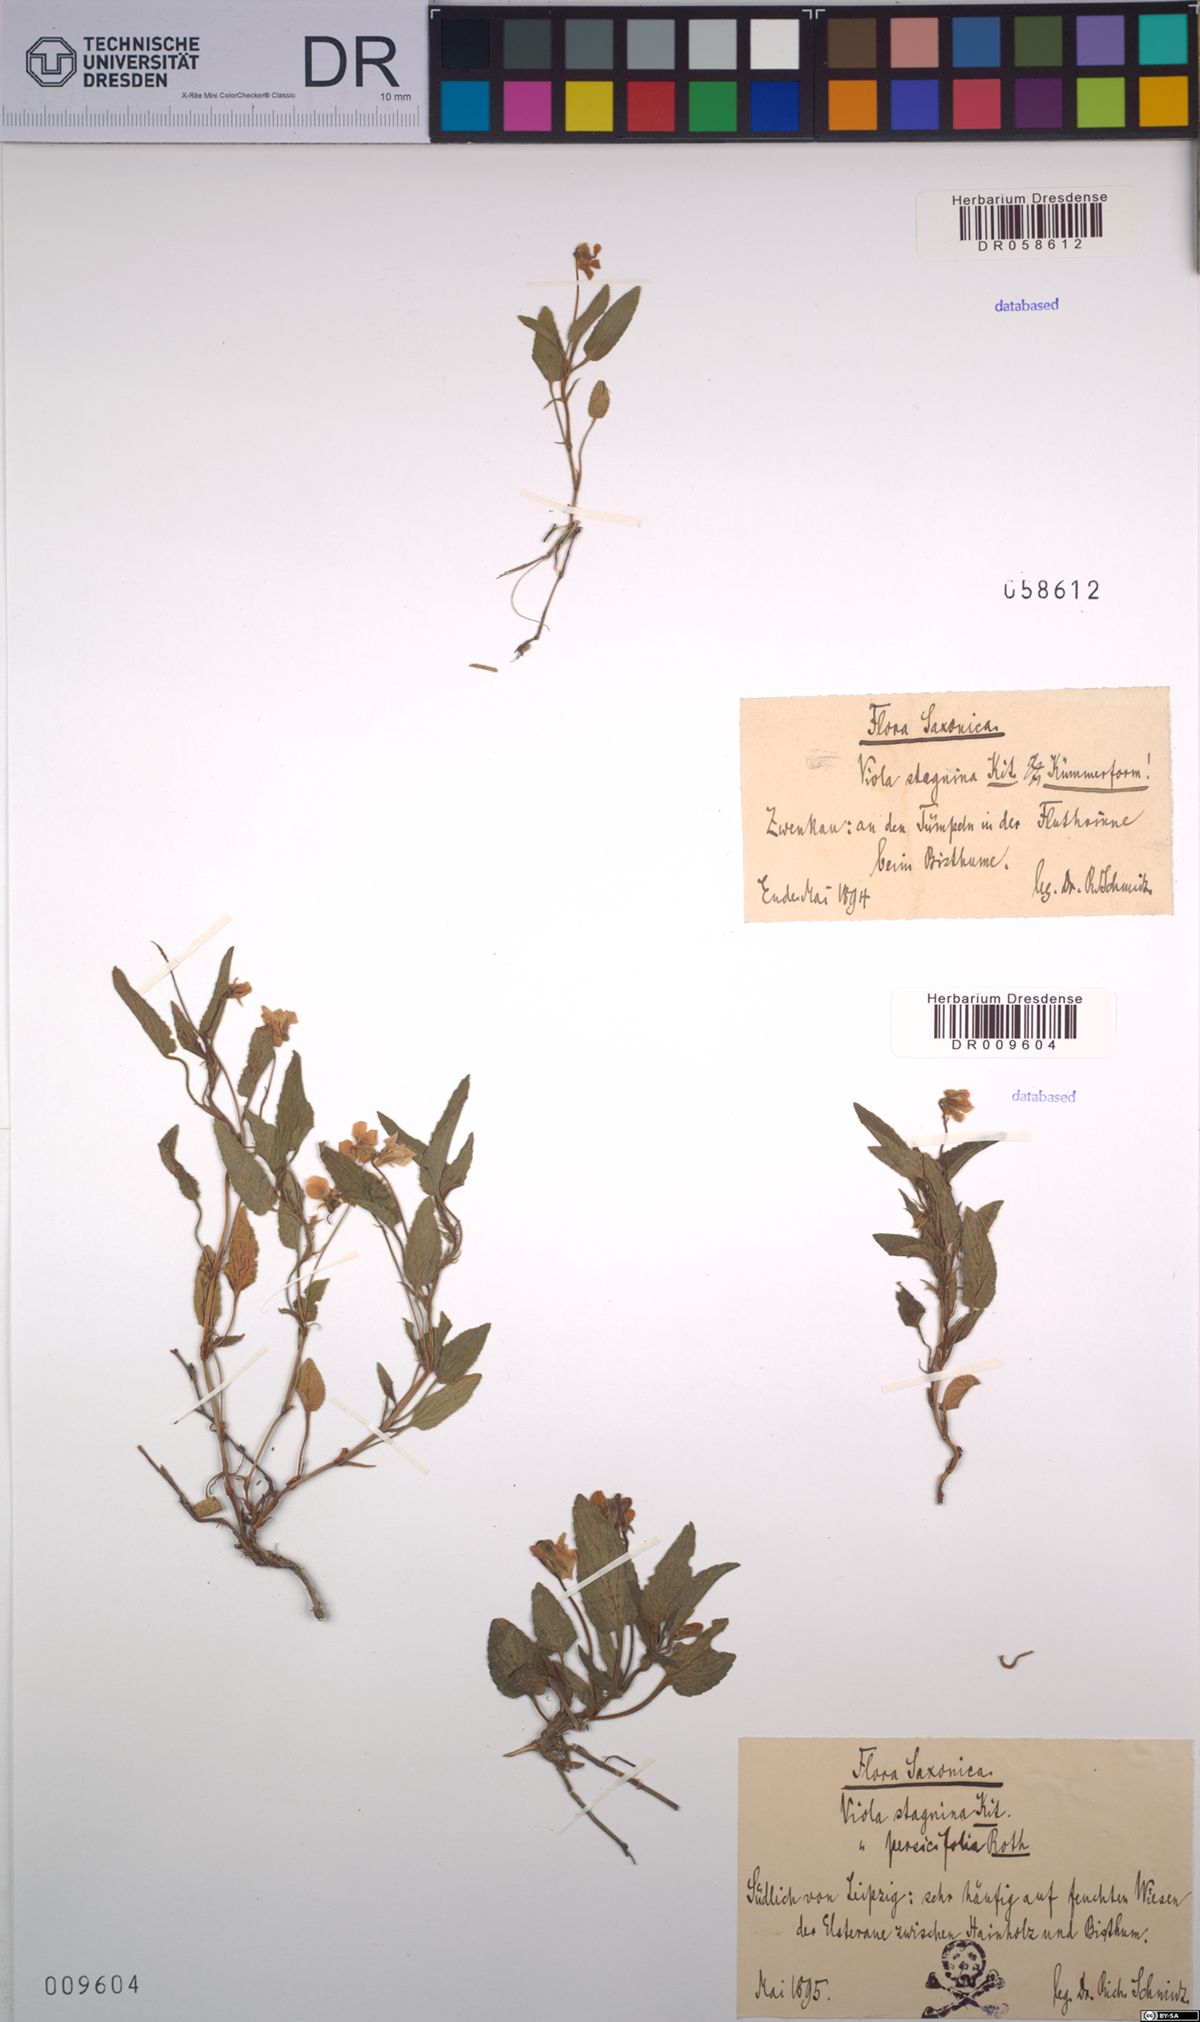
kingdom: Plantae
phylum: Tracheophyta
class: Magnoliopsida
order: Malpighiales
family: Violaceae
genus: Viola
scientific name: Viola stagnina
